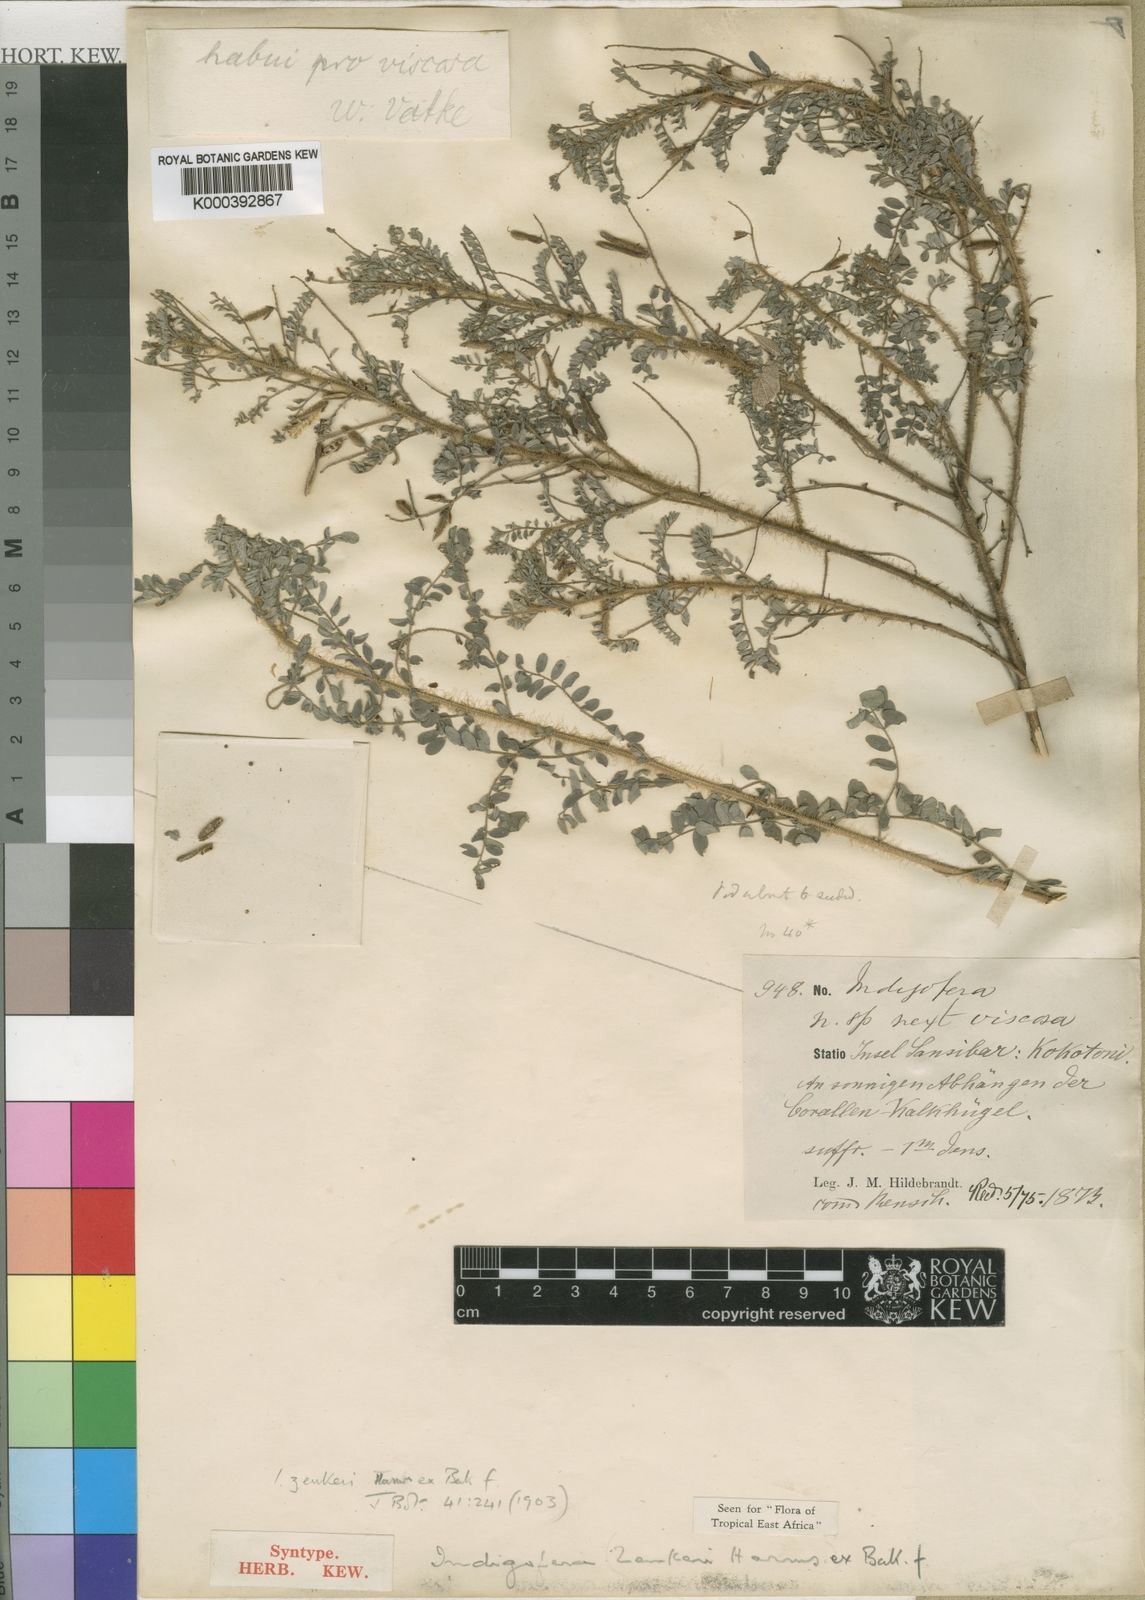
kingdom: Plantae
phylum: Tracheophyta
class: Magnoliopsida
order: Fabales
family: Fabaceae
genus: Indigofera
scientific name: Indigofera zenkeri
